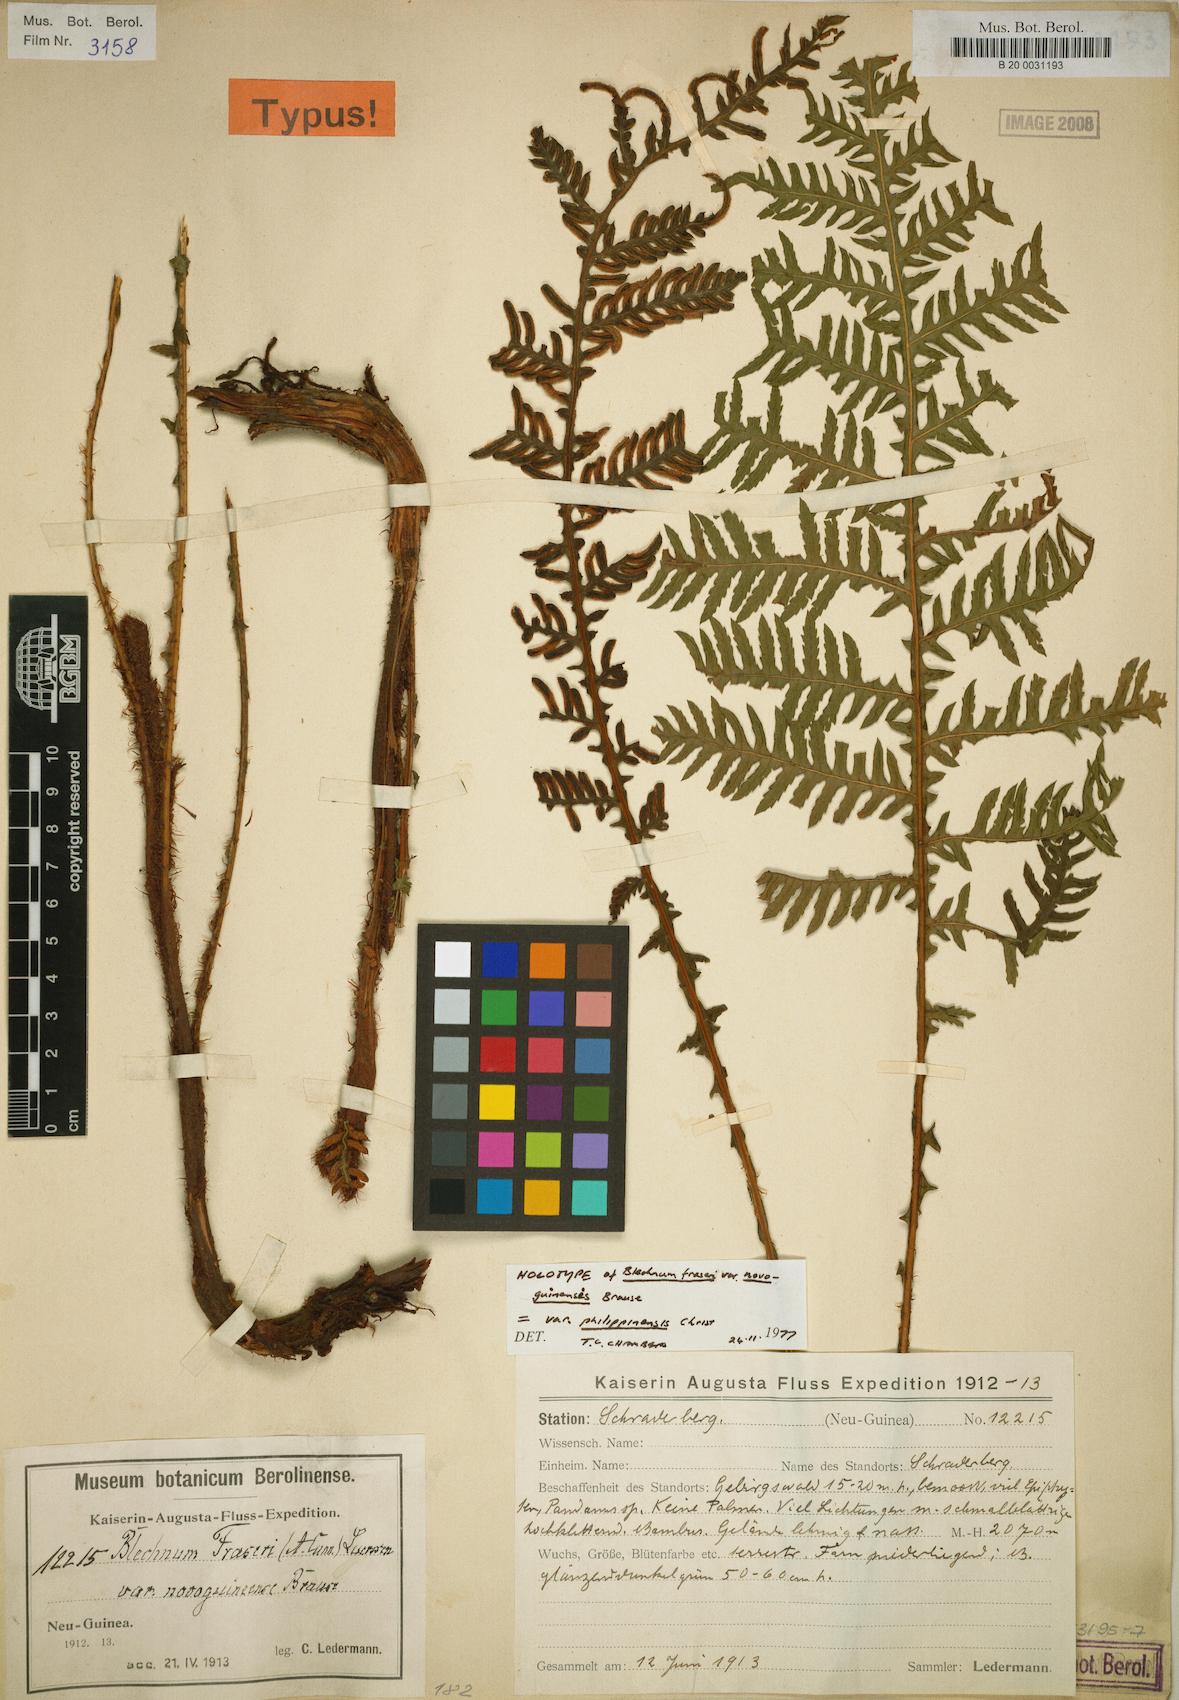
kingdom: Plantae
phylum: Tracheophyta
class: Polypodiopsida
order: Polypodiales
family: Blechnaceae
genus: Diploblechnum
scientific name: Diploblechnum rosenstockii
